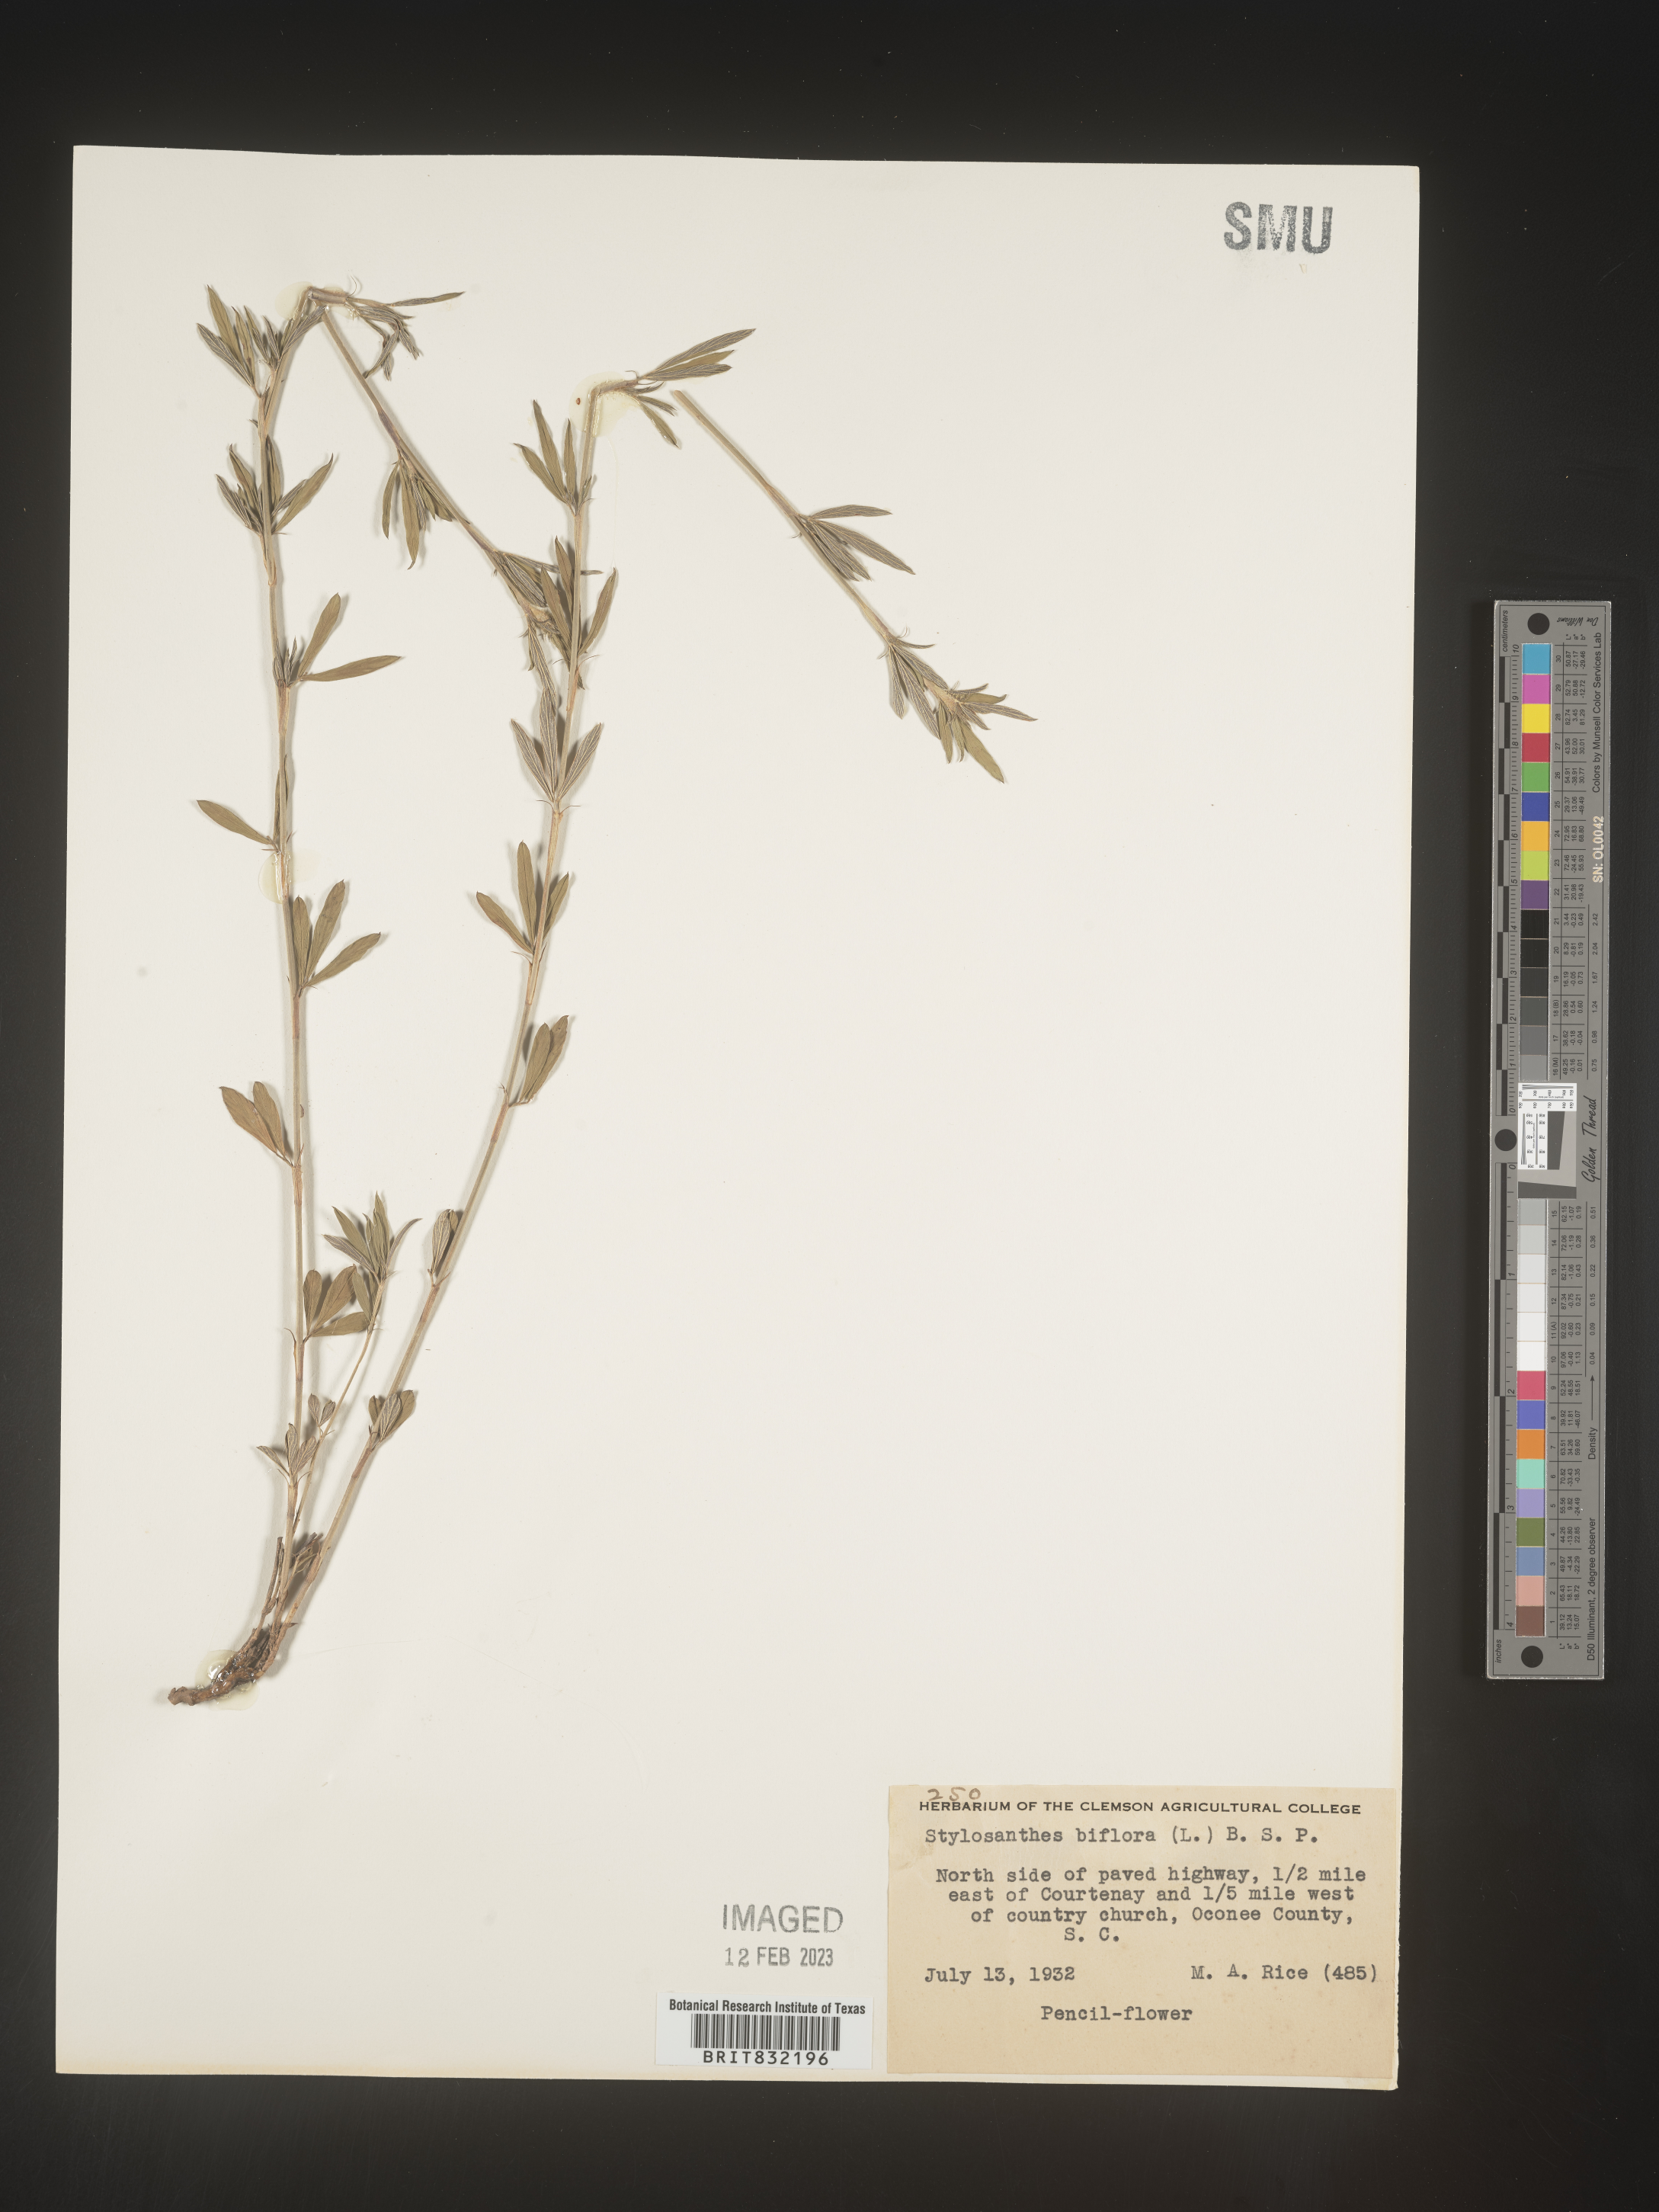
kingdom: Plantae
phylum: Tracheophyta
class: Magnoliopsida
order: Fabales
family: Fabaceae
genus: Stylosanthes
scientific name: Stylosanthes biflora
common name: Two-flower pencil-flower
